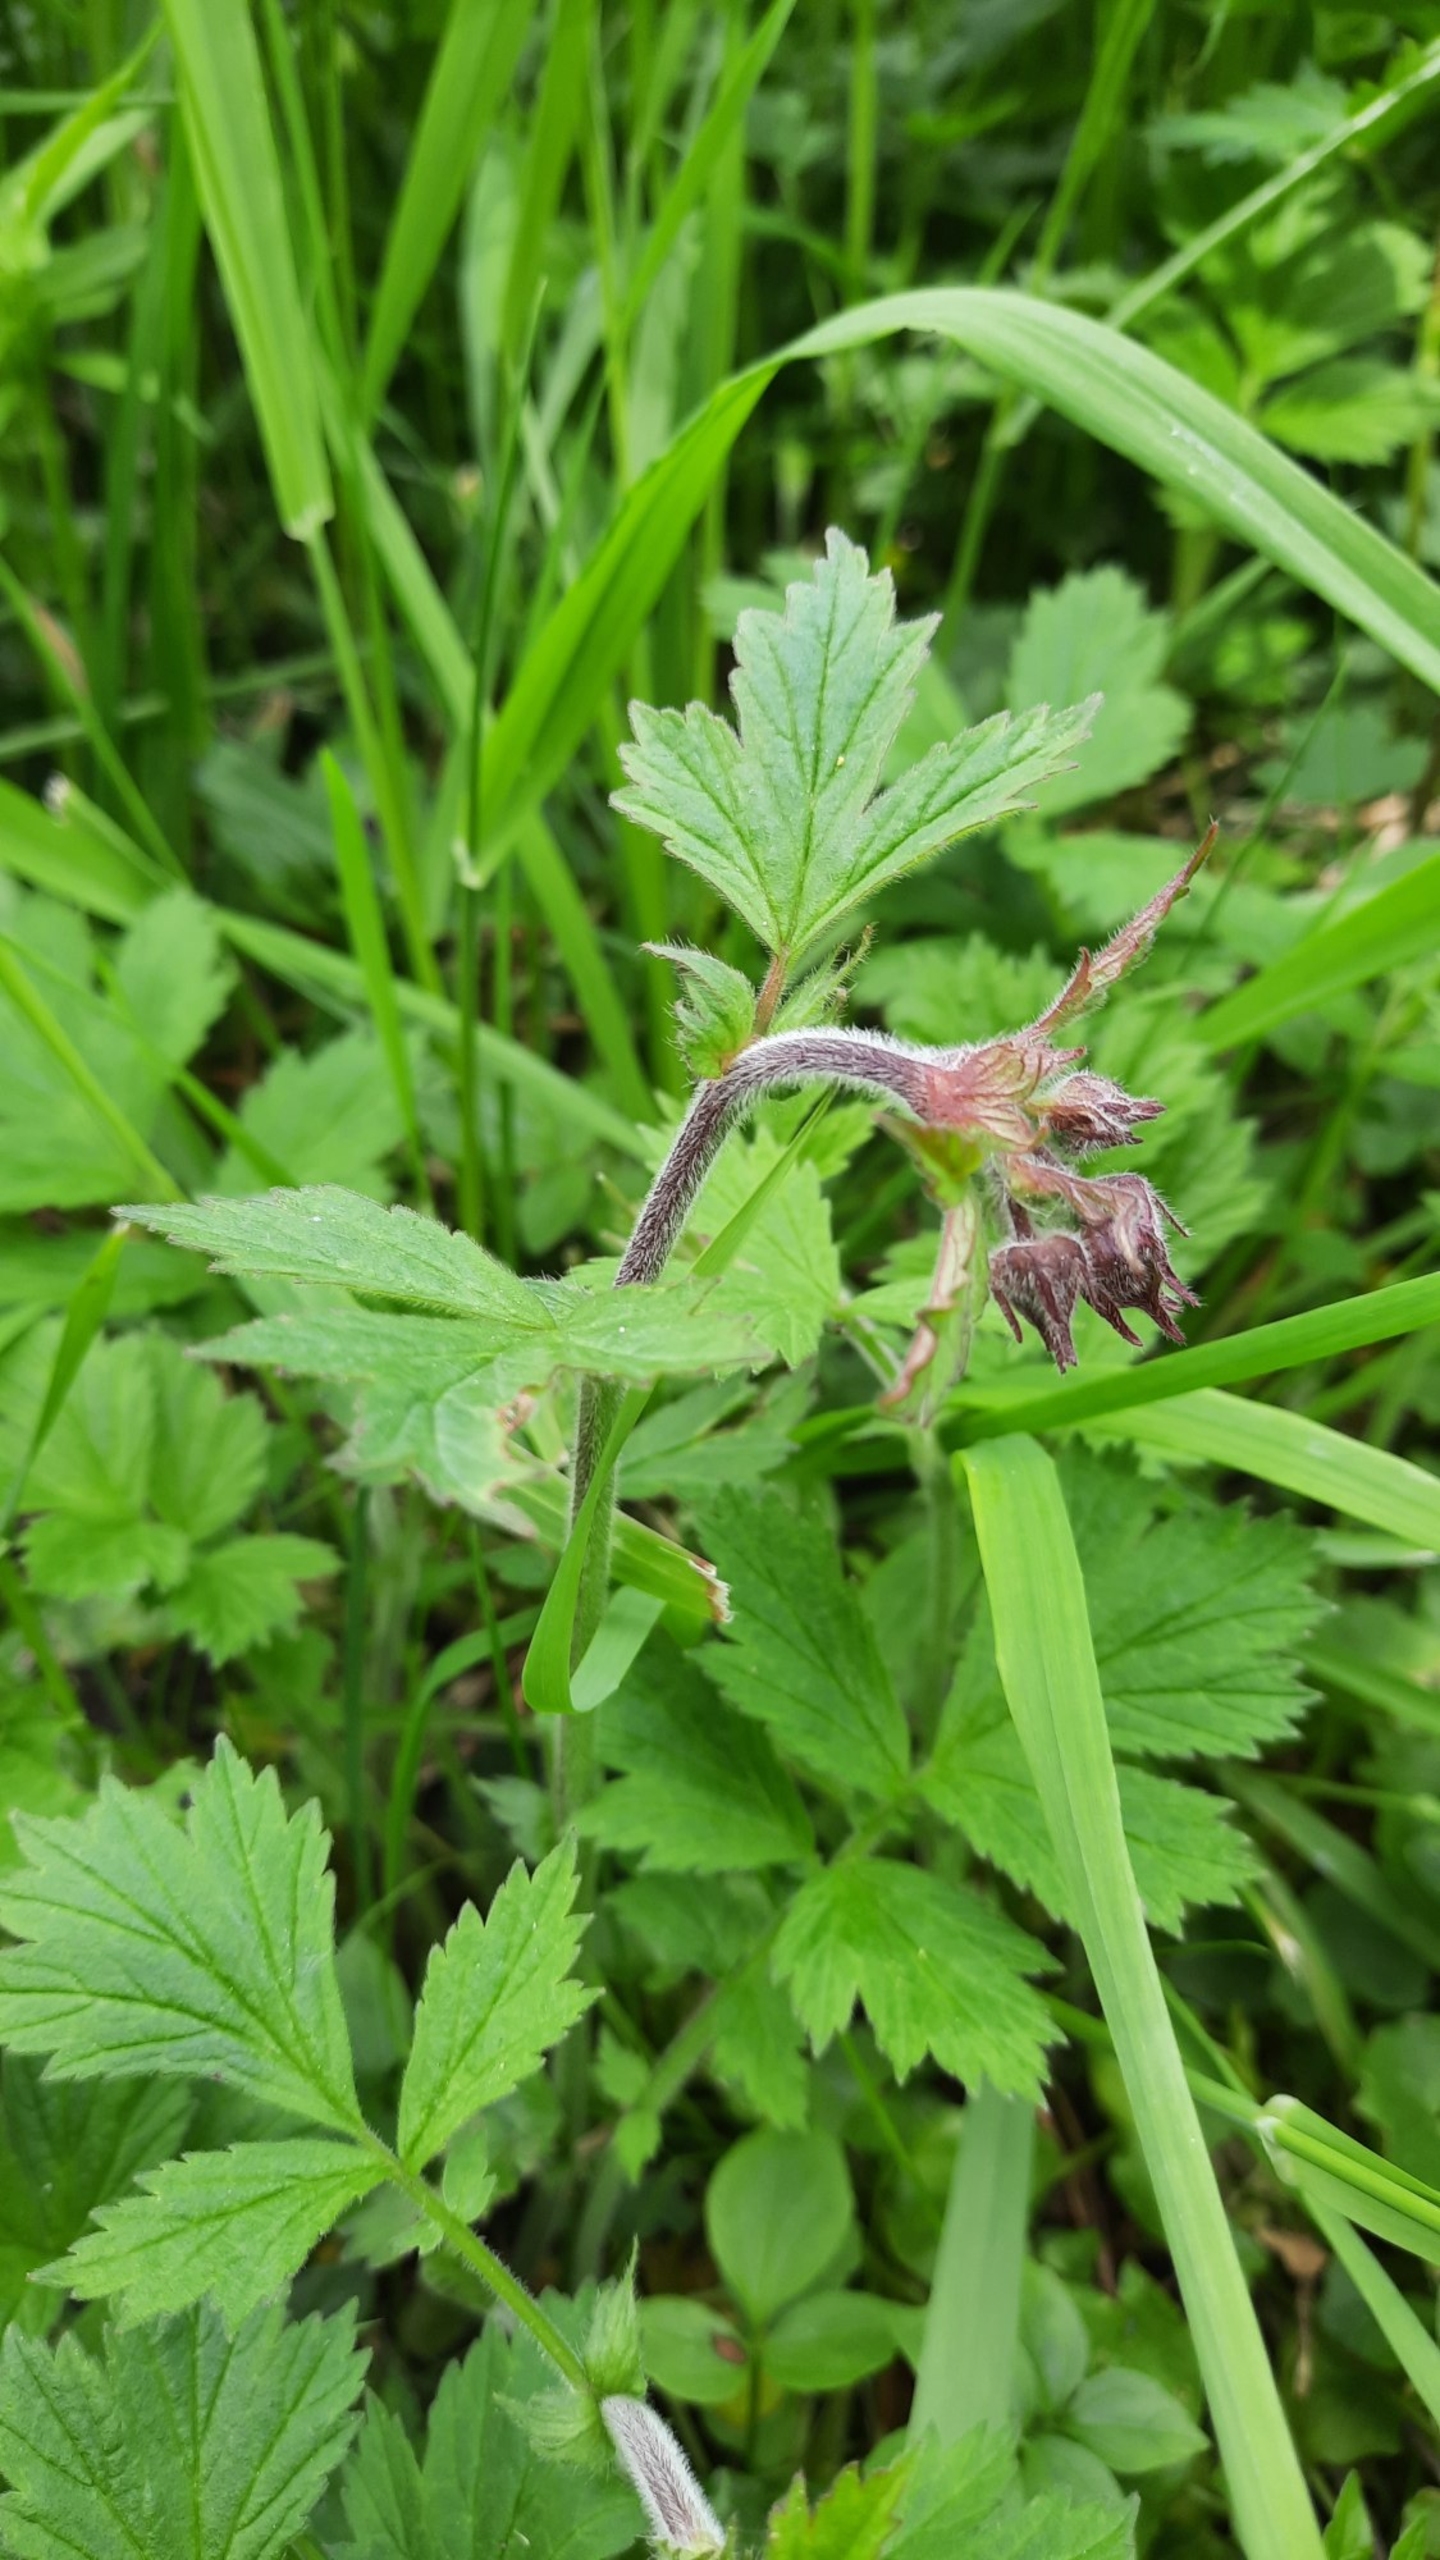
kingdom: Plantae
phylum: Tracheophyta
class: Magnoliopsida
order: Rosales
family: Rosaceae
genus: Geum
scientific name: Geum rivale
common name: Eng-nellikerod
